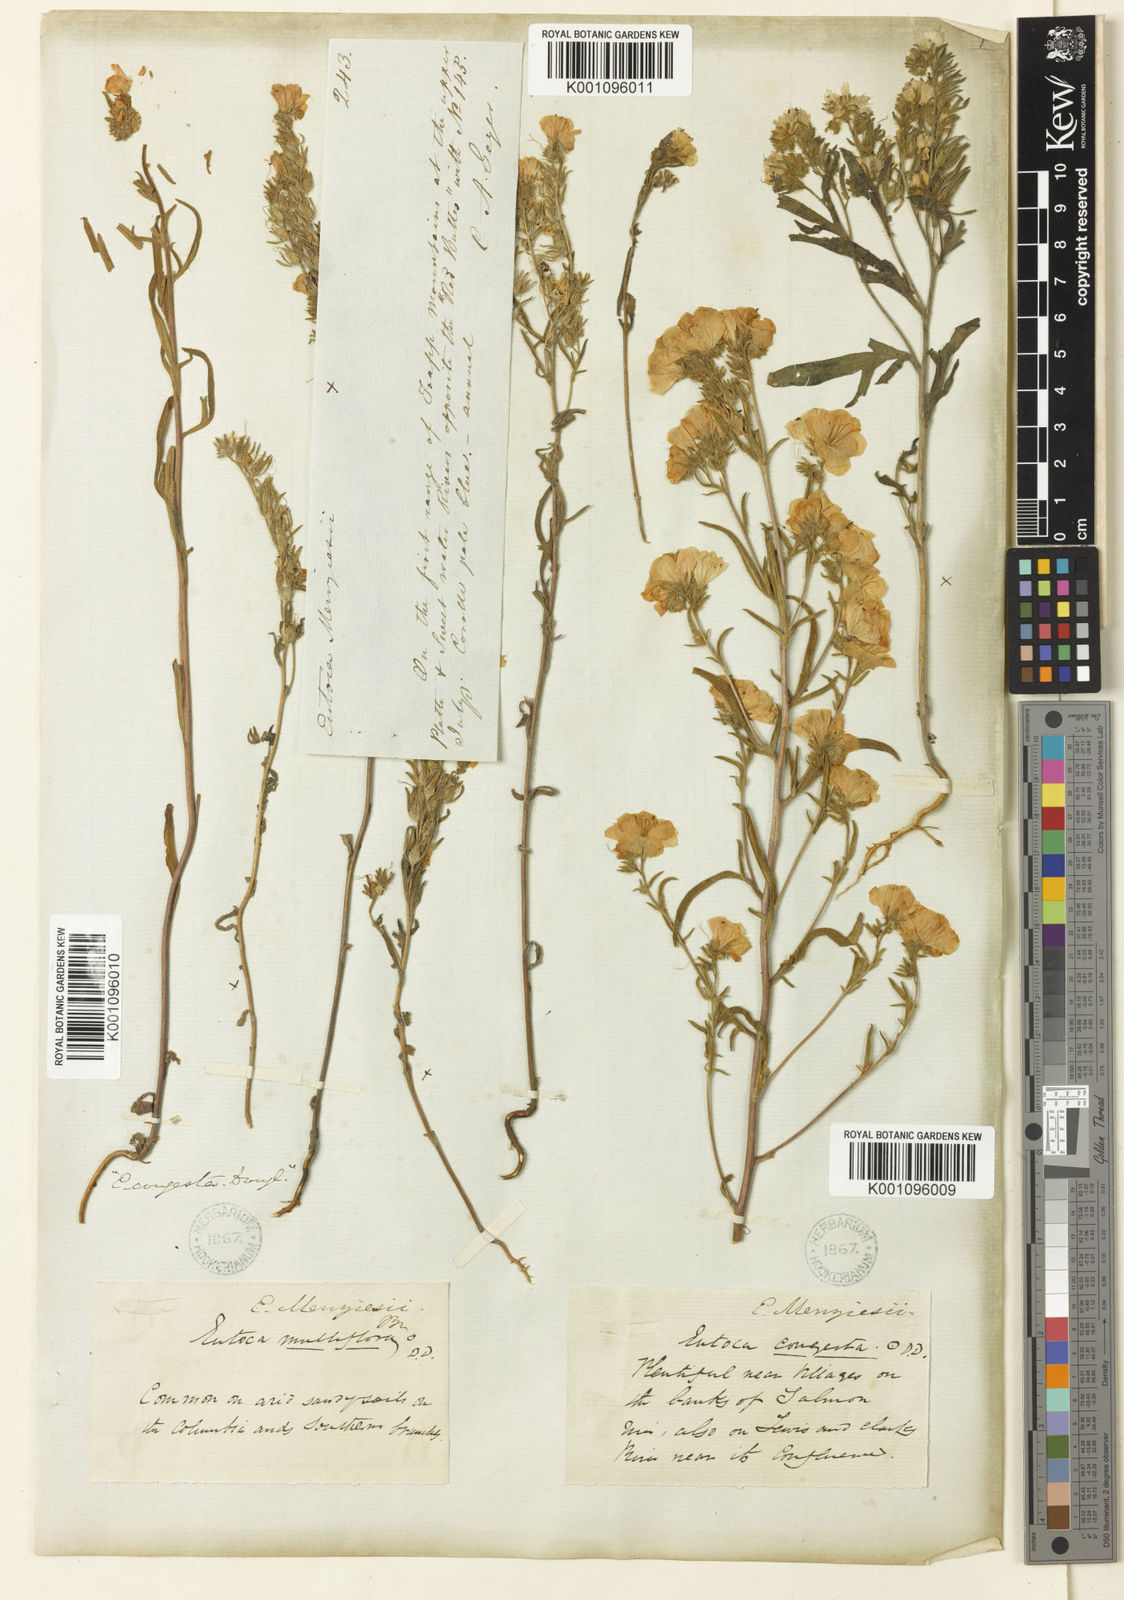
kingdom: Plantae
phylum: Tracheophyta
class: Magnoliopsida
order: Boraginales
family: Hydrophyllaceae
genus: Phacelia
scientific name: Phacelia linearis
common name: Linear-leaved phacelia
